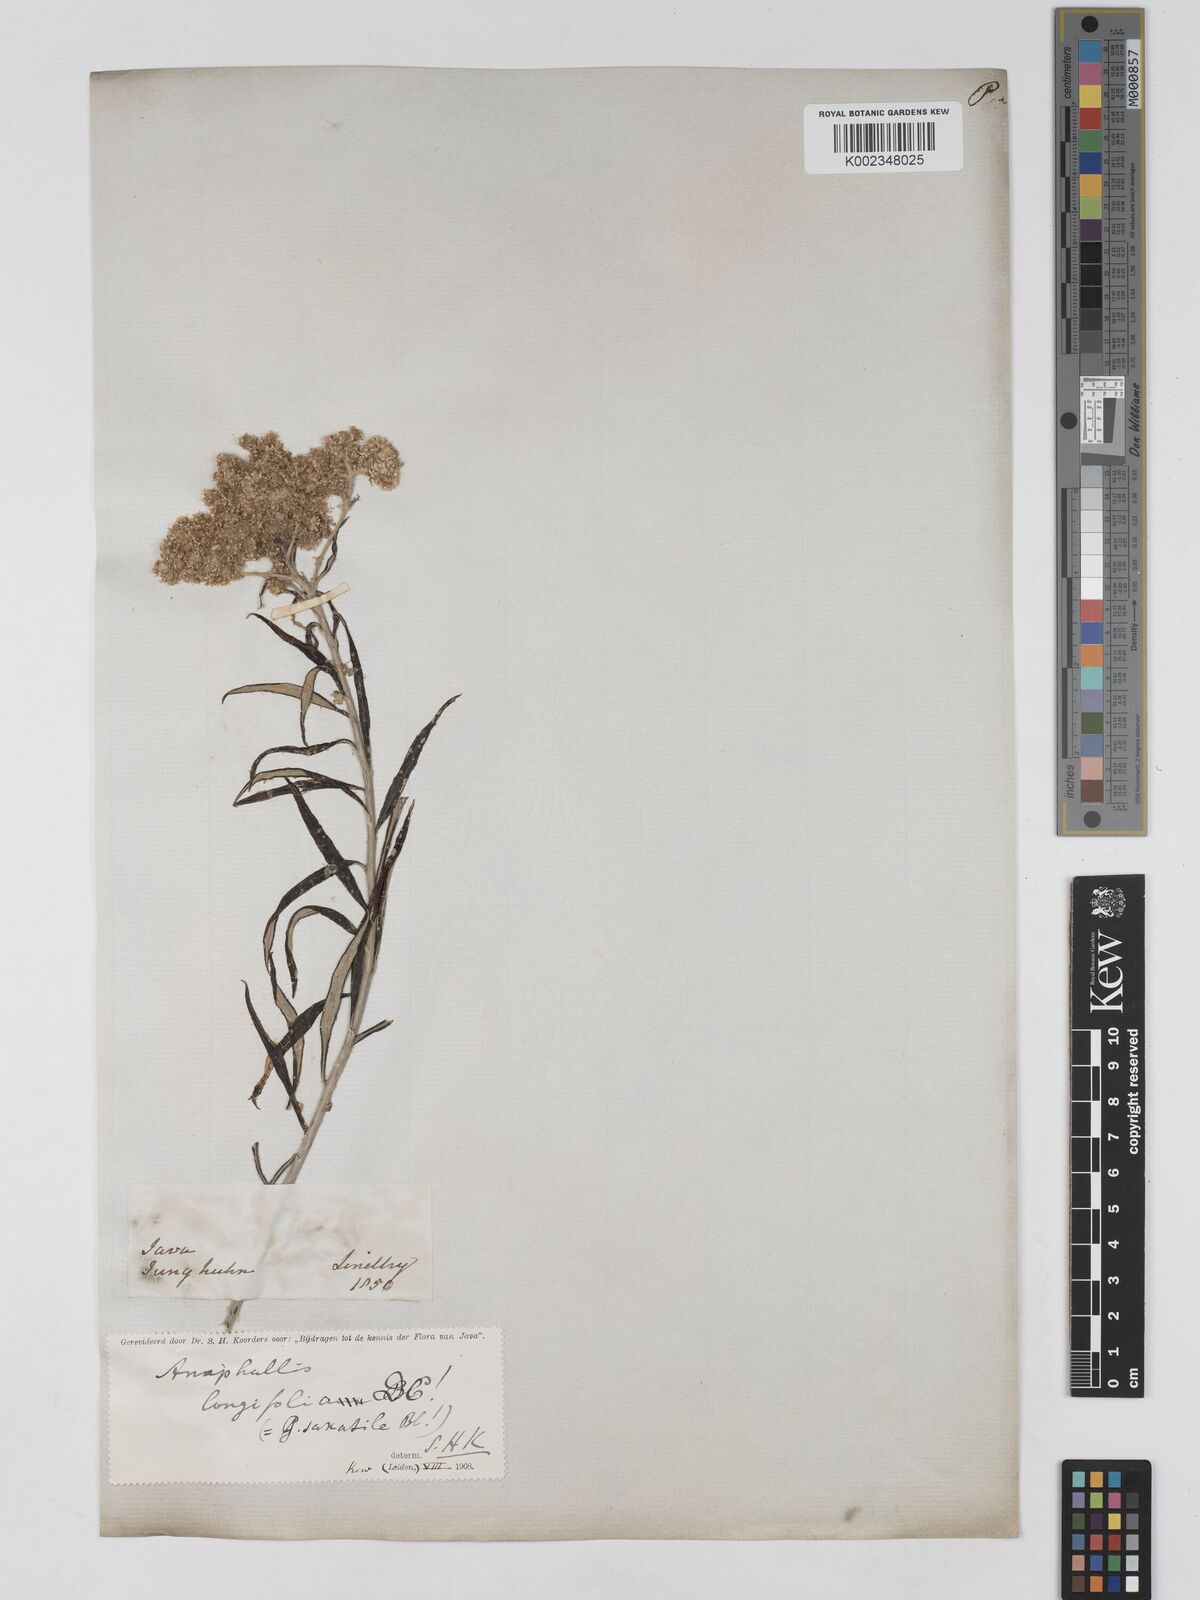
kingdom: Plantae
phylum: Tracheophyta
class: Magnoliopsida
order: Asterales
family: Asteraceae
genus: Anaphalis
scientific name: Anaphalis longifolia
